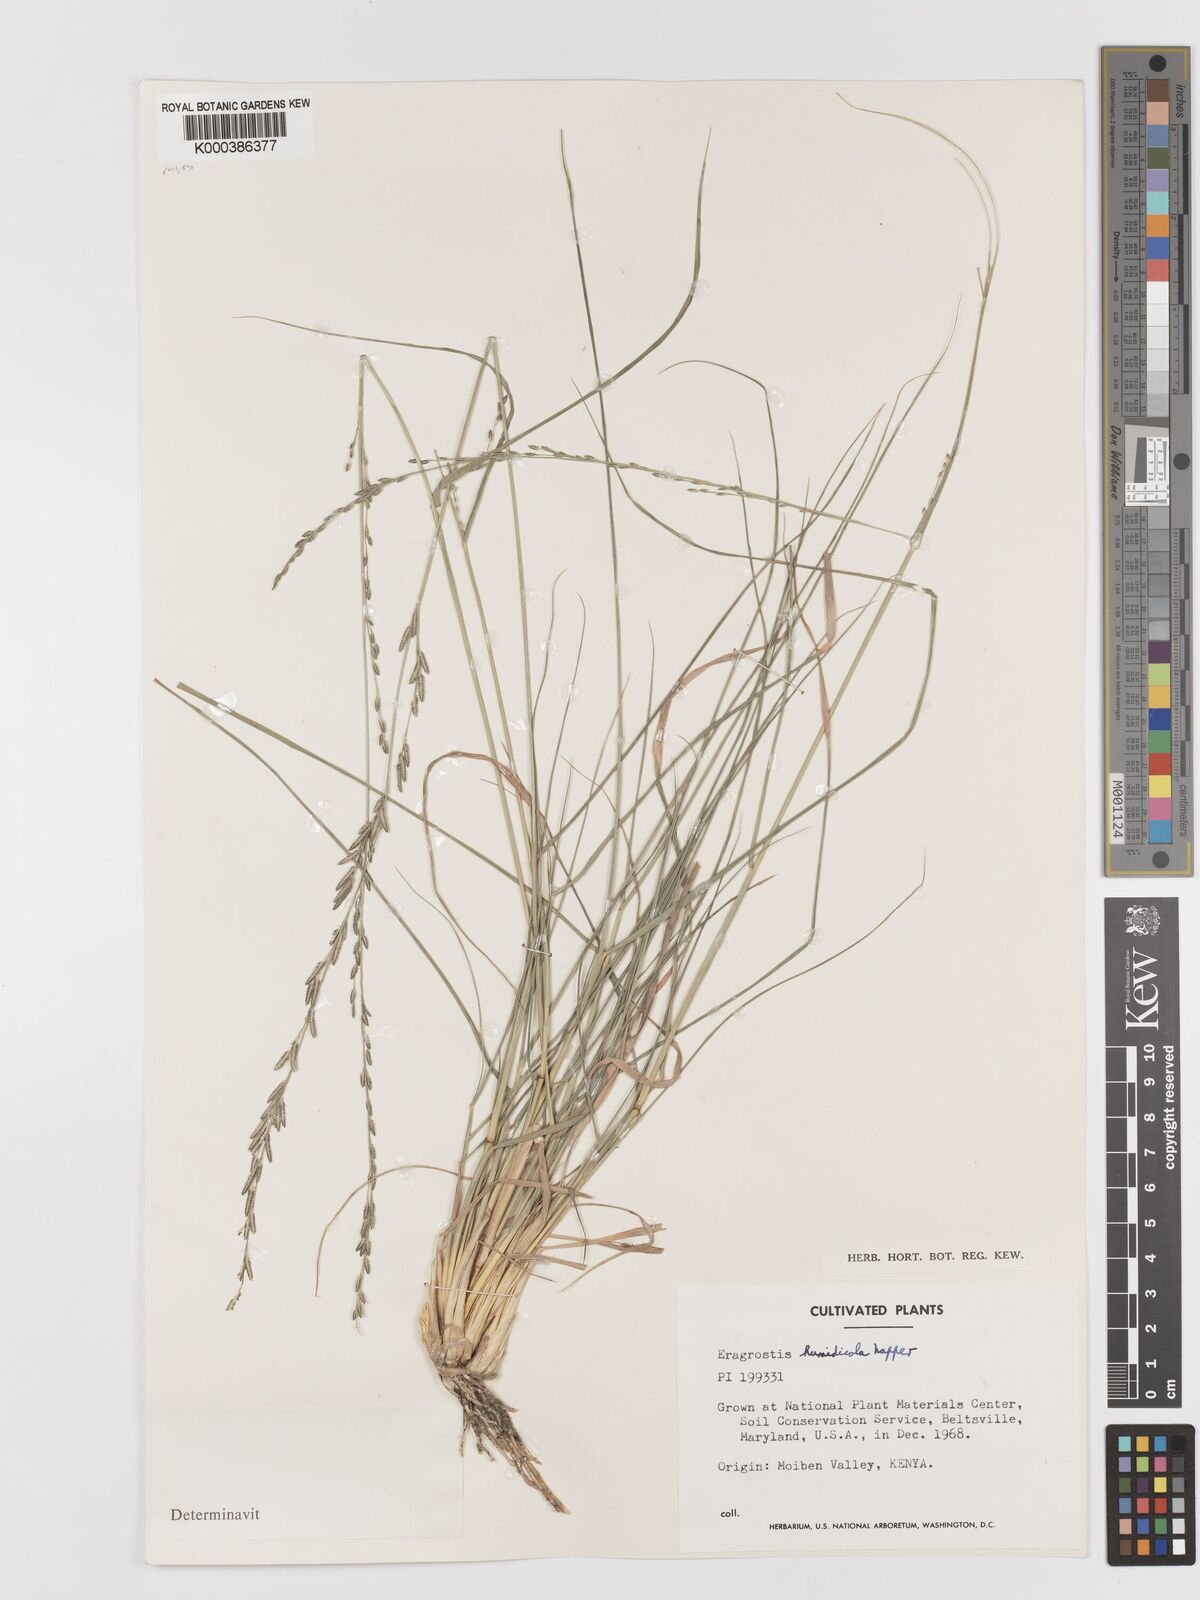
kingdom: Plantae
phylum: Tracheophyta
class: Liliopsida
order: Poales
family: Poaceae
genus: Eragrostis
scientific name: Eragrostis humidicola
